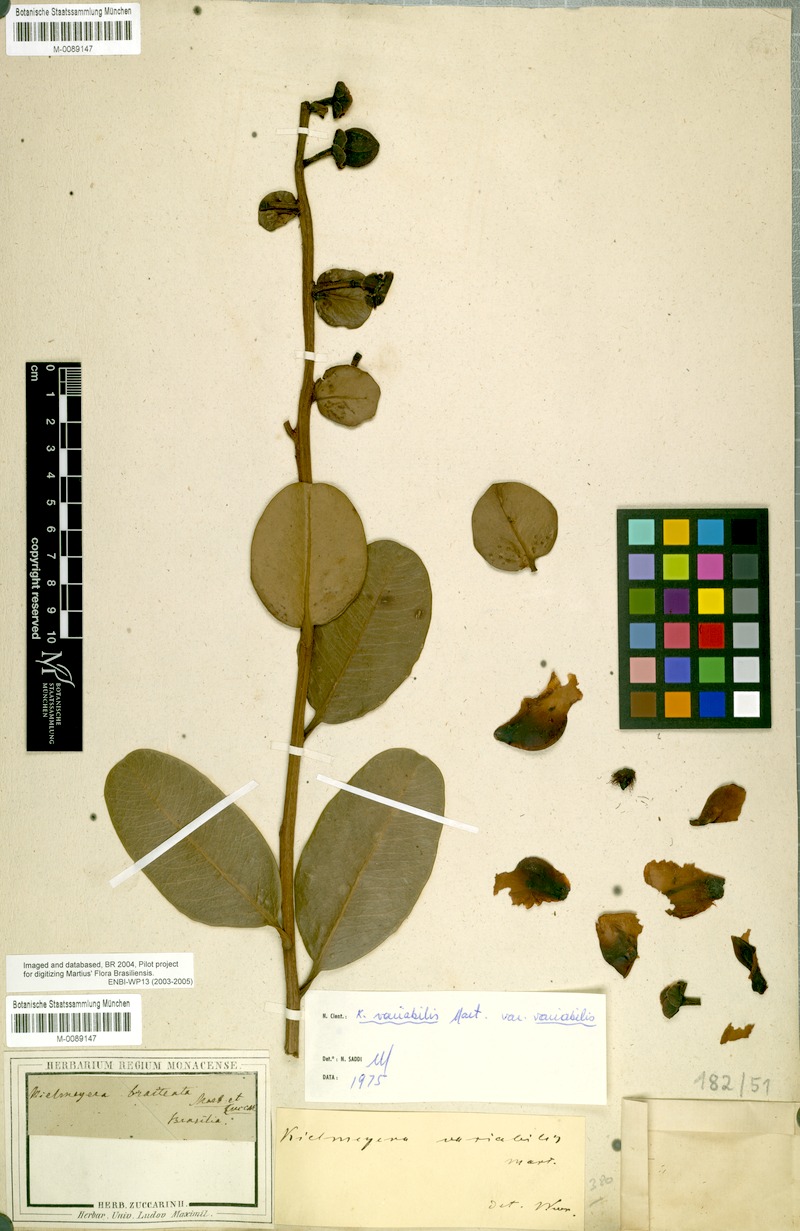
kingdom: Plantae
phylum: Tracheophyta
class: Magnoliopsida
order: Malpighiales
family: Calophyllaceae
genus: Kielmeyera
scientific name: Kielmeyera variabilis
